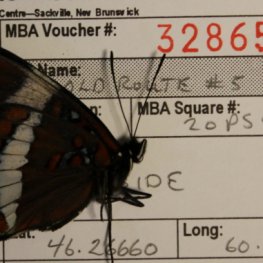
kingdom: Animalia
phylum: Arthropoda
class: Insecta
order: Lepidoptera
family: Nymphalidae
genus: Limenitis
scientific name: Limenitis arthemis
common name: Red-spotted Admiral
